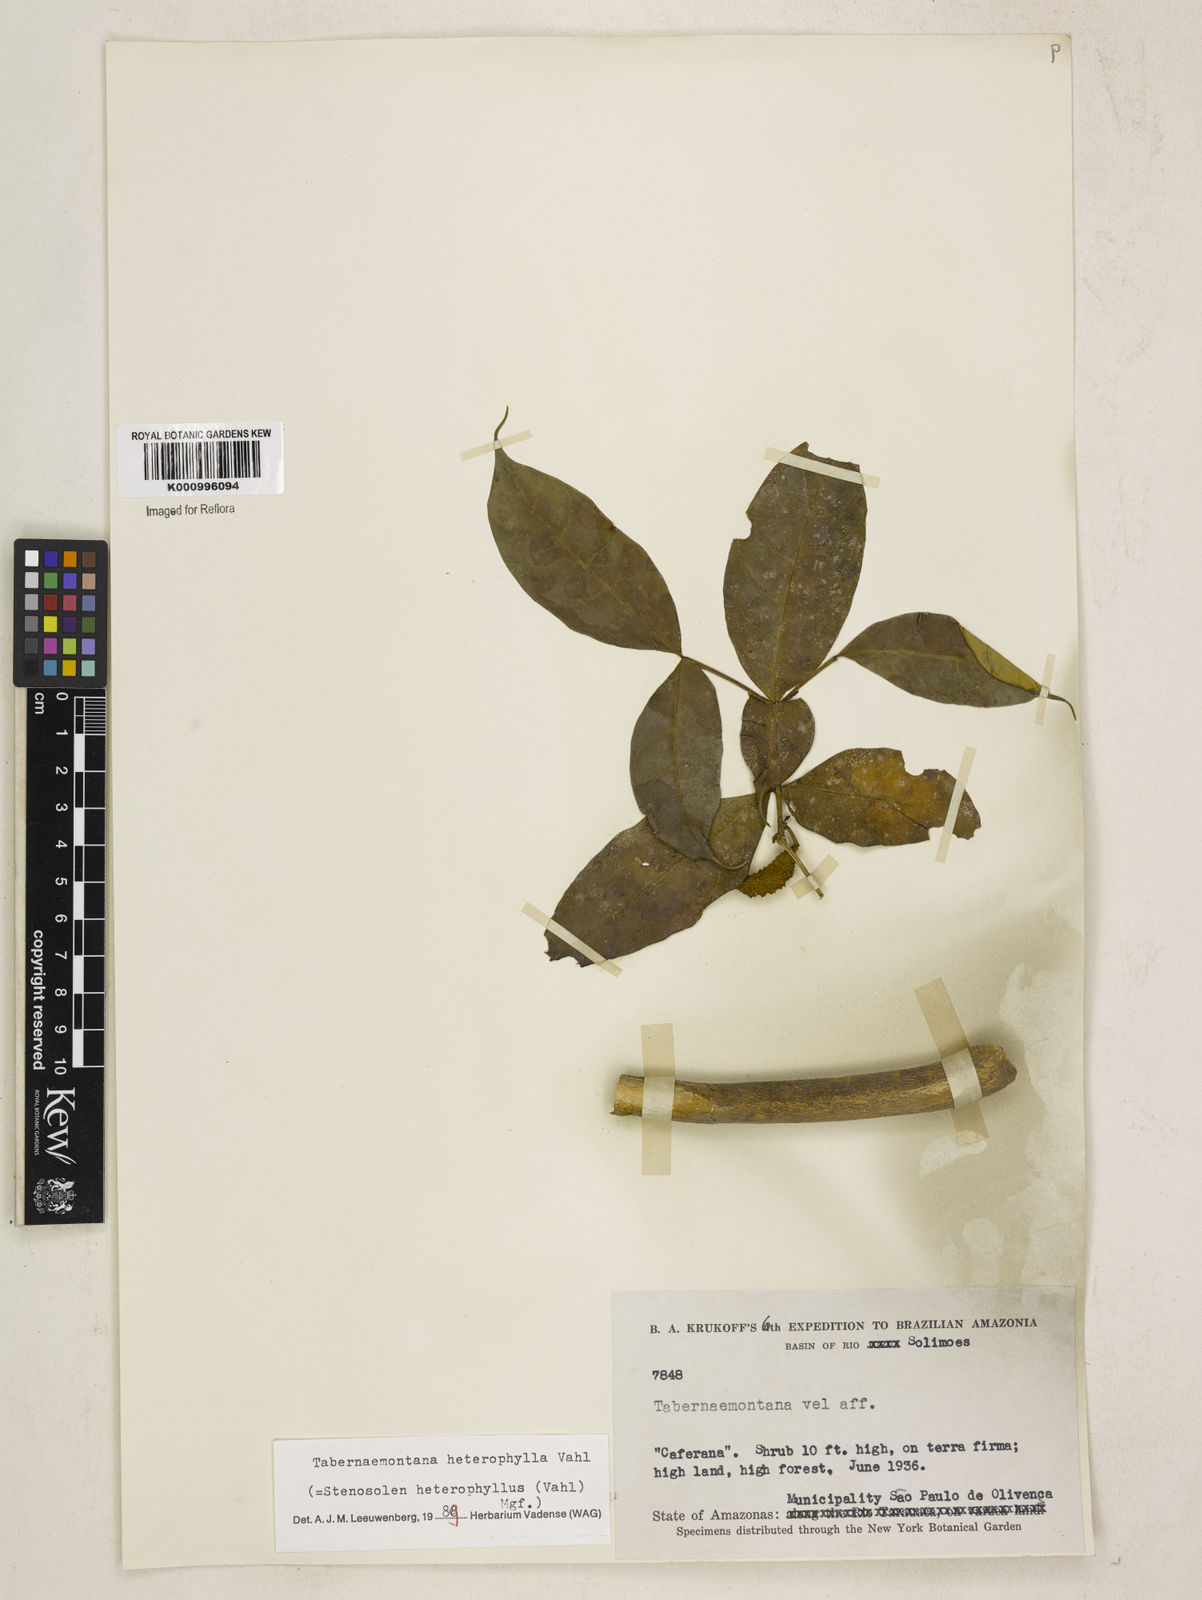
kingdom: Plantae
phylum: Tracheophyta
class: Magnoliopsida
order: Gentianales
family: Apocynaceae
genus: Tabernaemontana
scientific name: Tabernaemontana heterophylla
